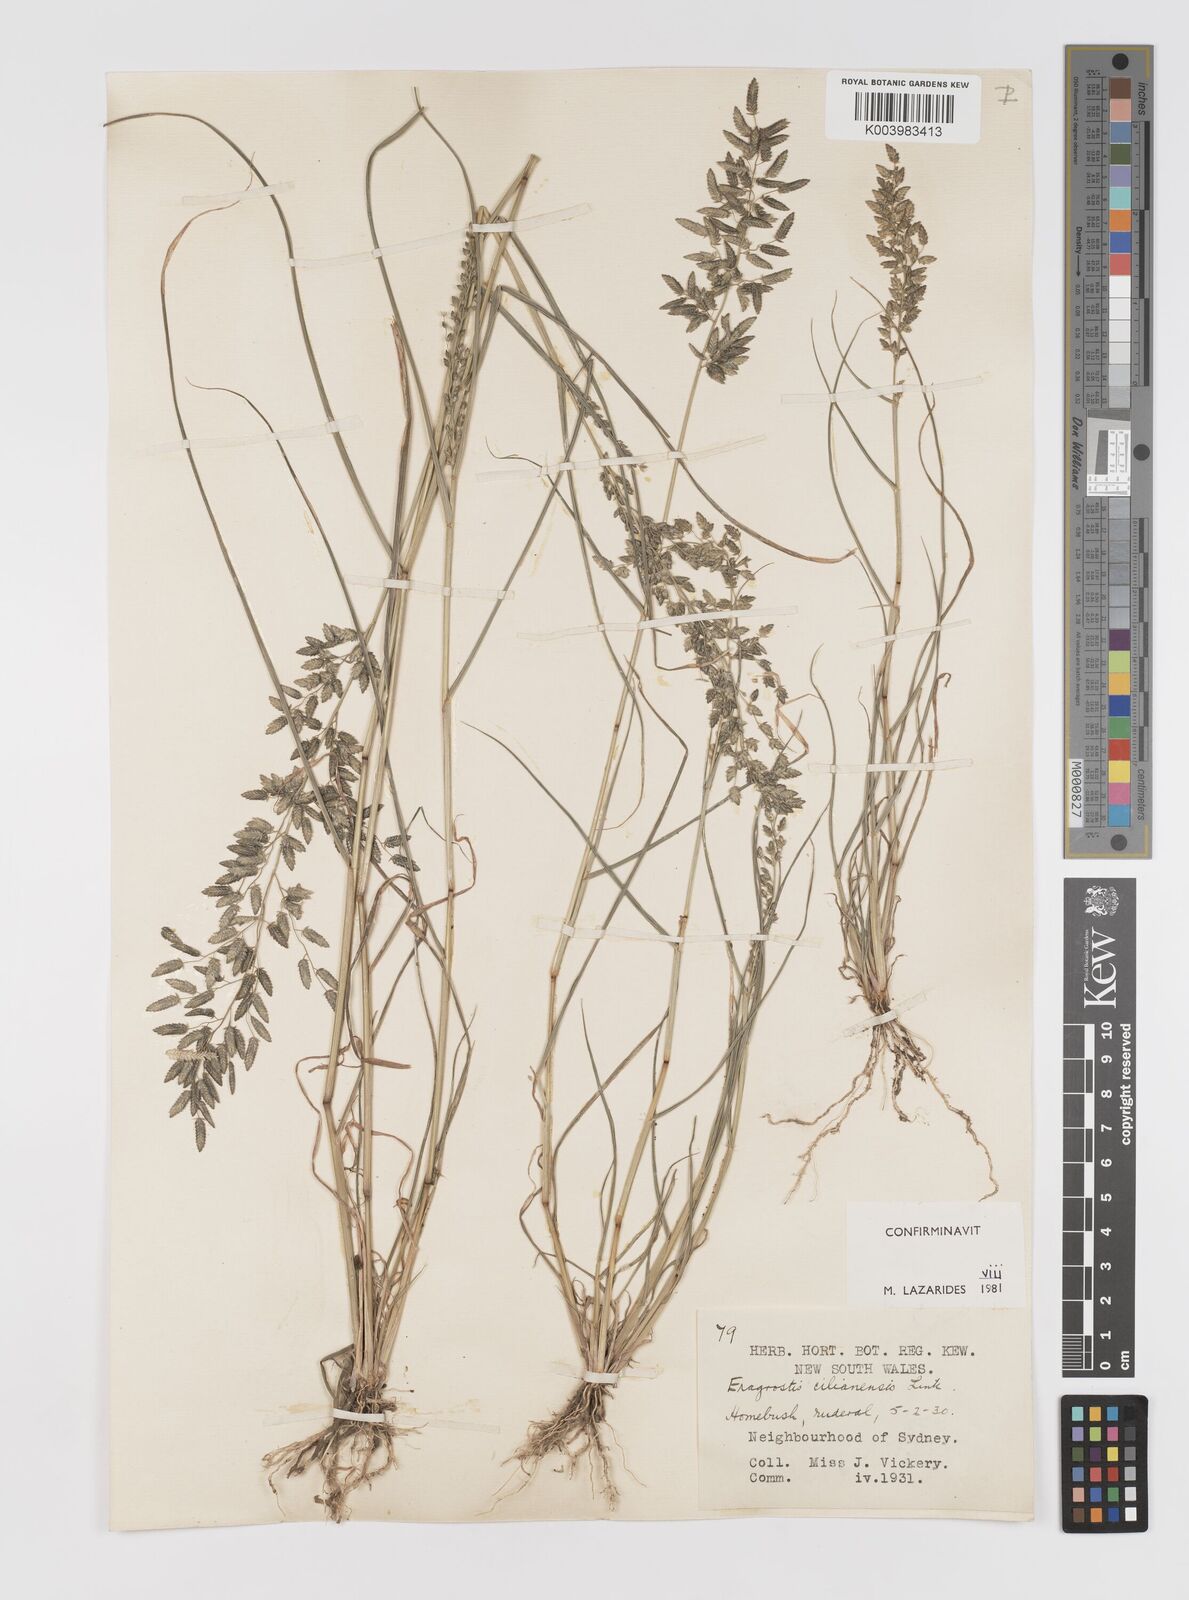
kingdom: Plantae
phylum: Tracheophyta
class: Liliopsida
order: Poales
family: Poaceae
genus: Eragrostis
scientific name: Eragrostis cilianensis
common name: Stinkgrass
